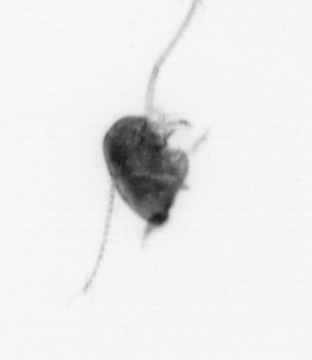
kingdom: Animalia
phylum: Arthropoda
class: Copepoda
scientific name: Copepoda
